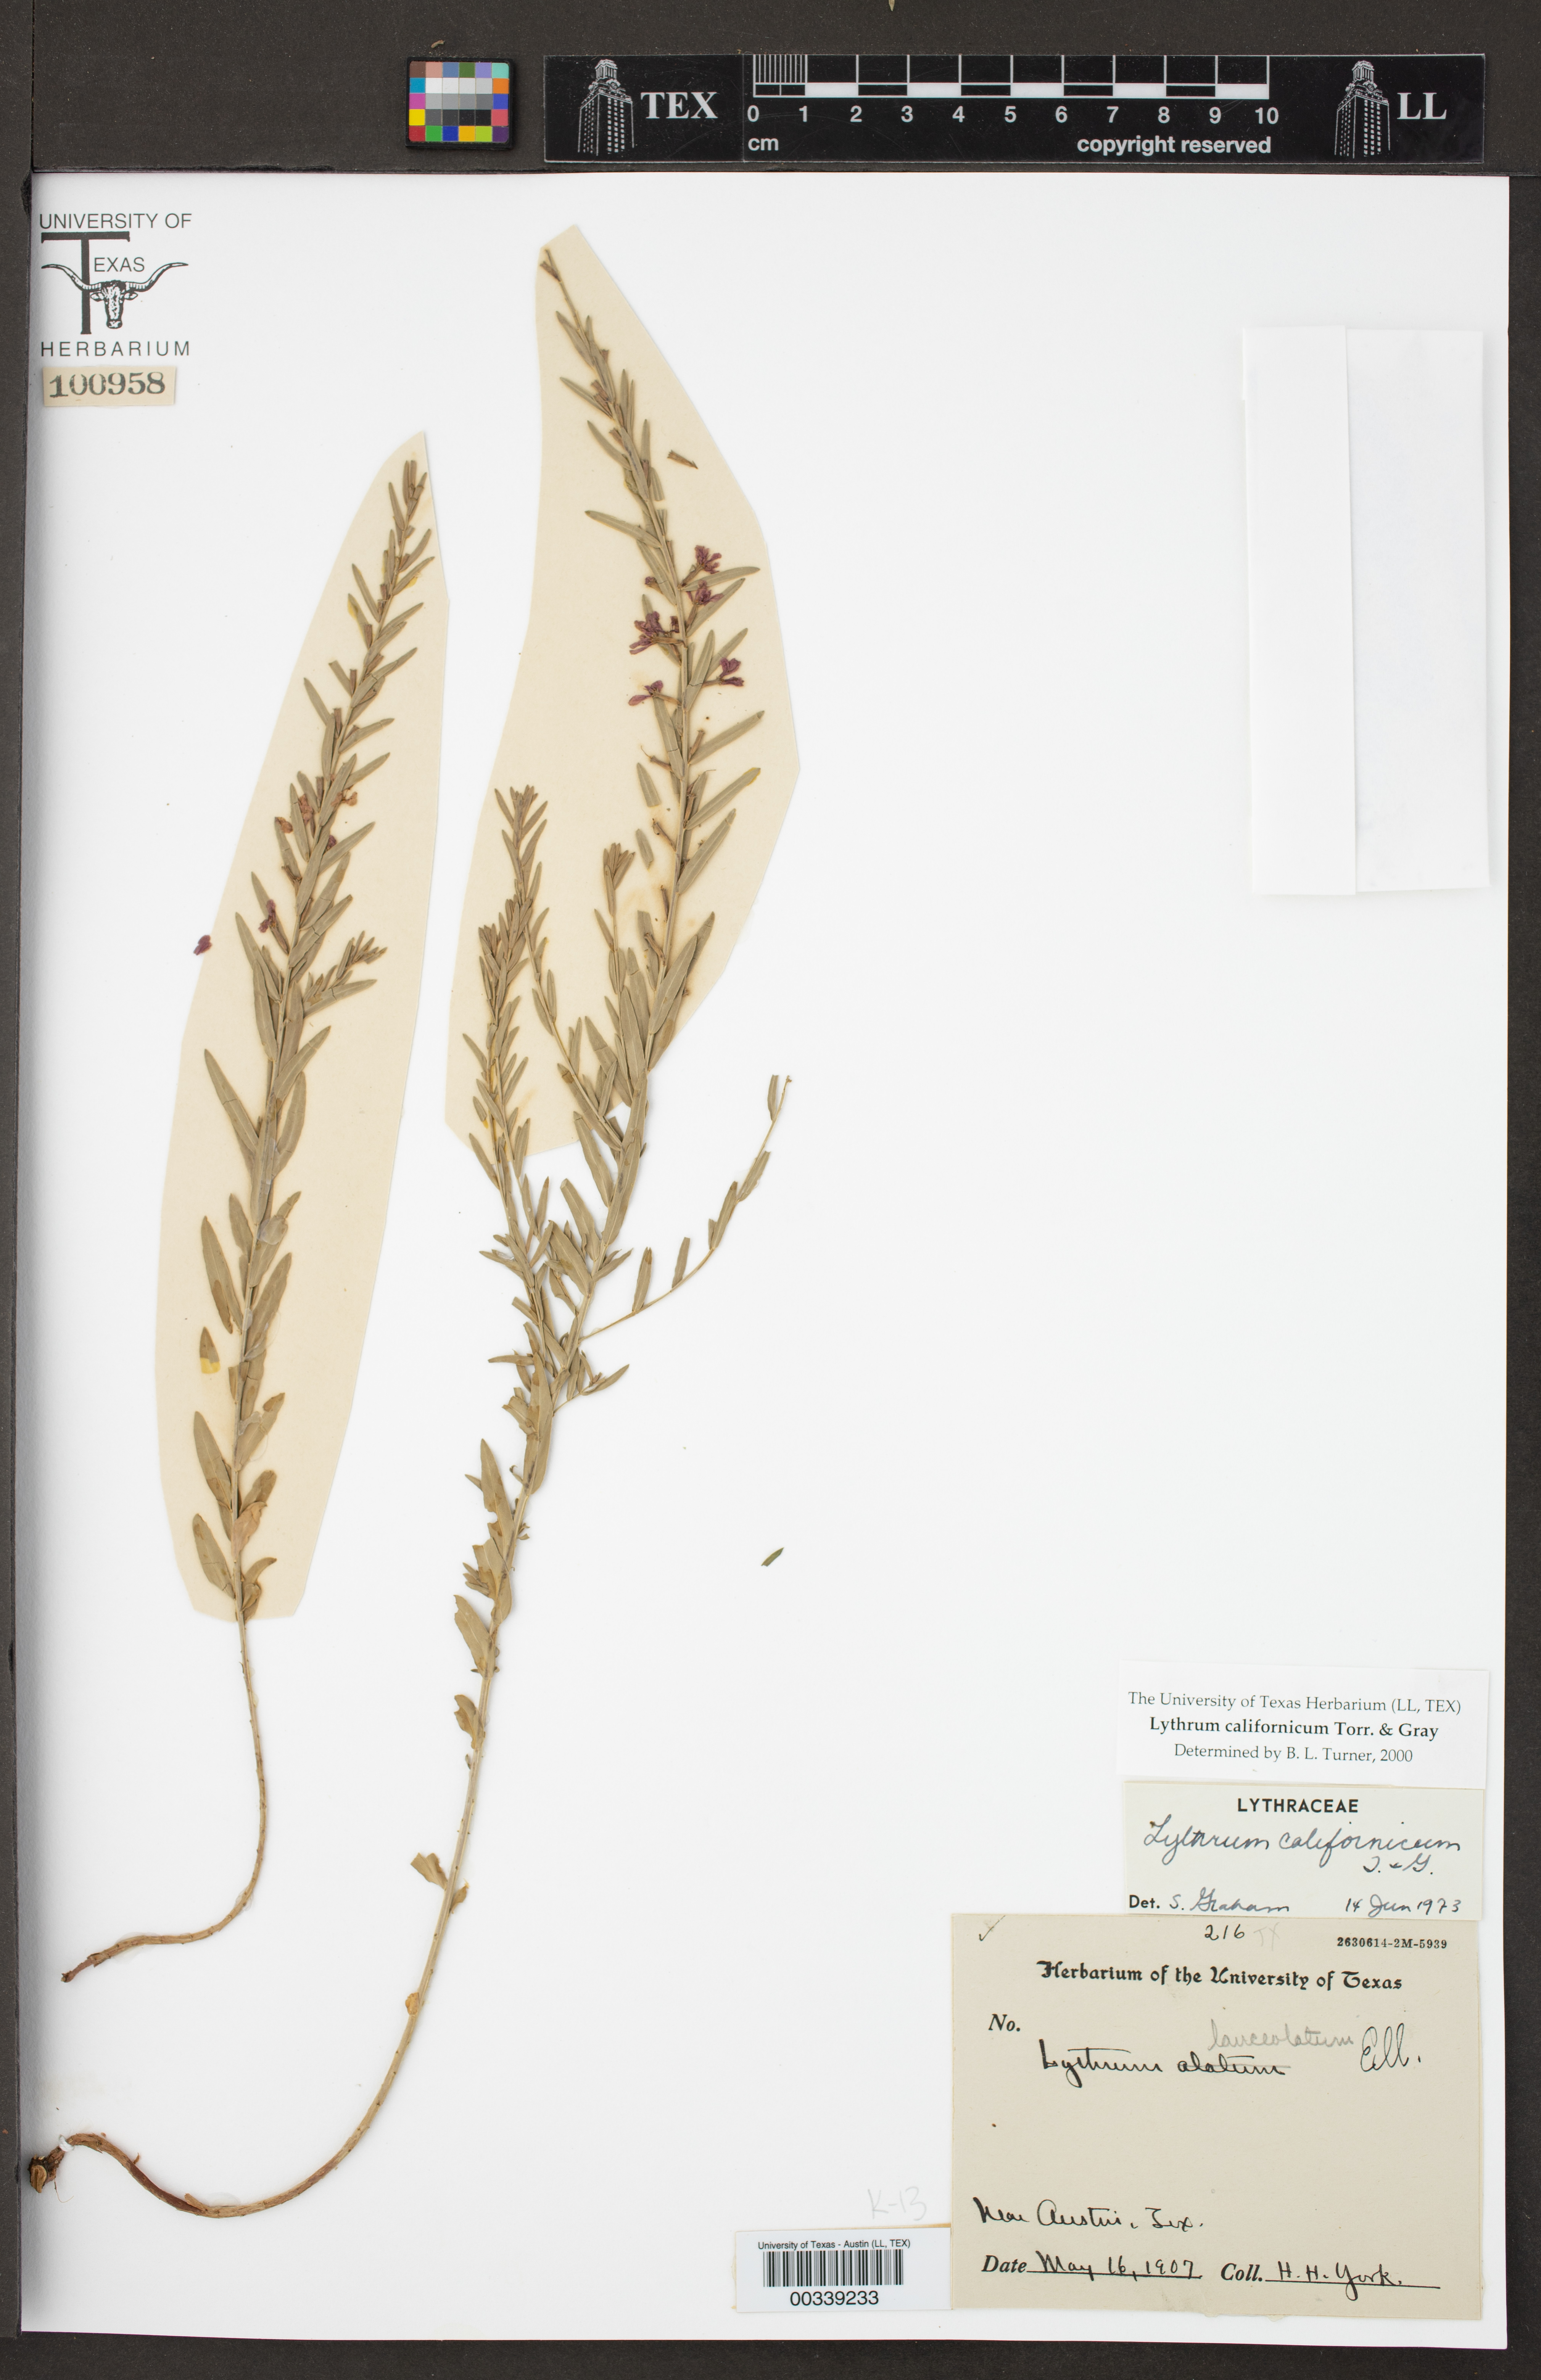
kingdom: Plantae
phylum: Tracheophyta
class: Magnoliopsida
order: Myrtales
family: Lythraceae
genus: Lythrum
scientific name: Lythrum californicum
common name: California loosestrife
